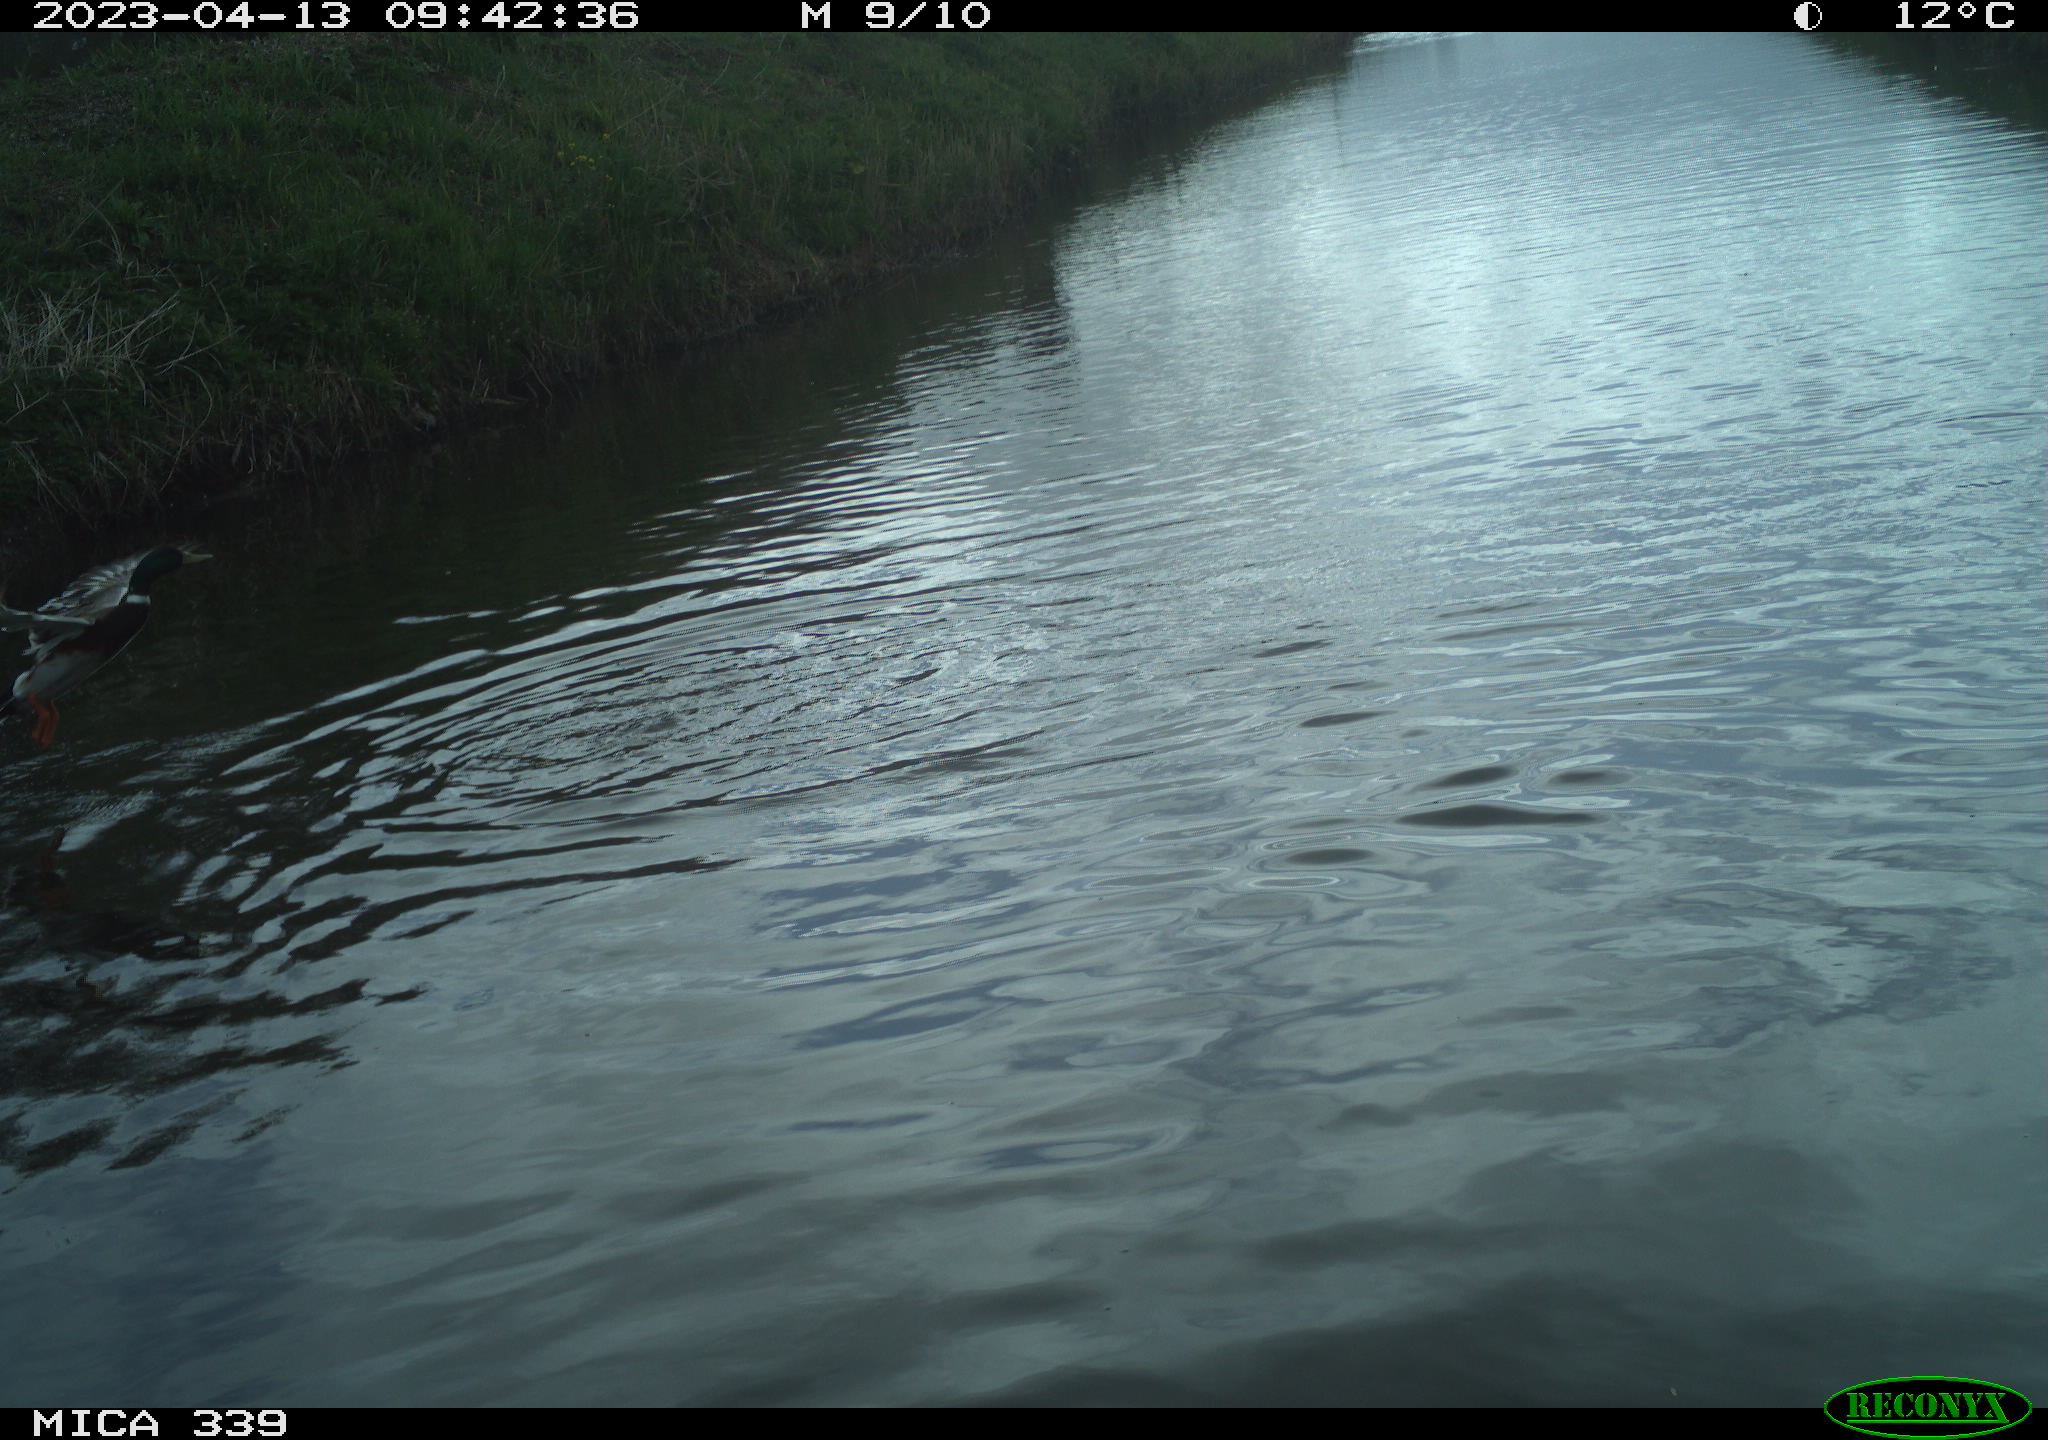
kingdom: Animalia
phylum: Chordata
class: Aves
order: Anseriformes
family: Anatidae
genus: Anas
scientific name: Anas platyrhynchos
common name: Mallard
